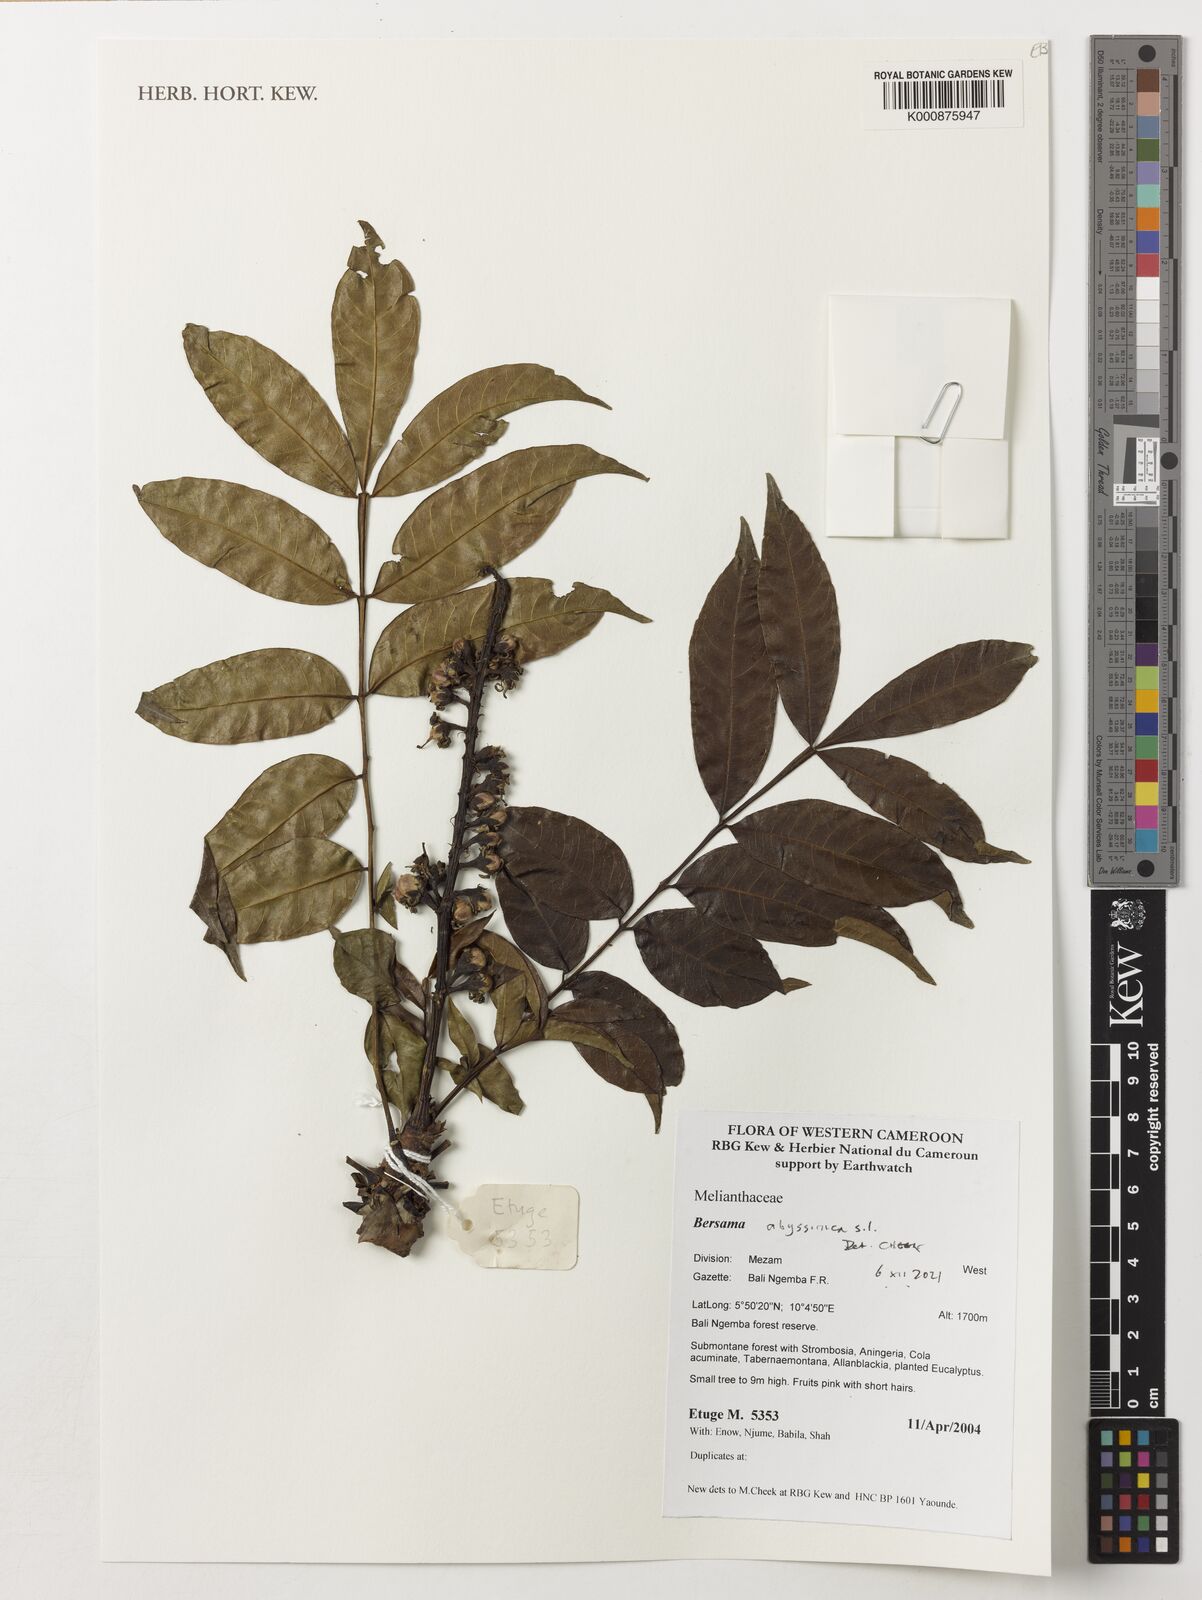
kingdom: Plantae
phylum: Tracheophyta
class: Magnoliopsida
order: Geraniales
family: Melianthaceae
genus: Bersama
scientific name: Bersama abyssinica
